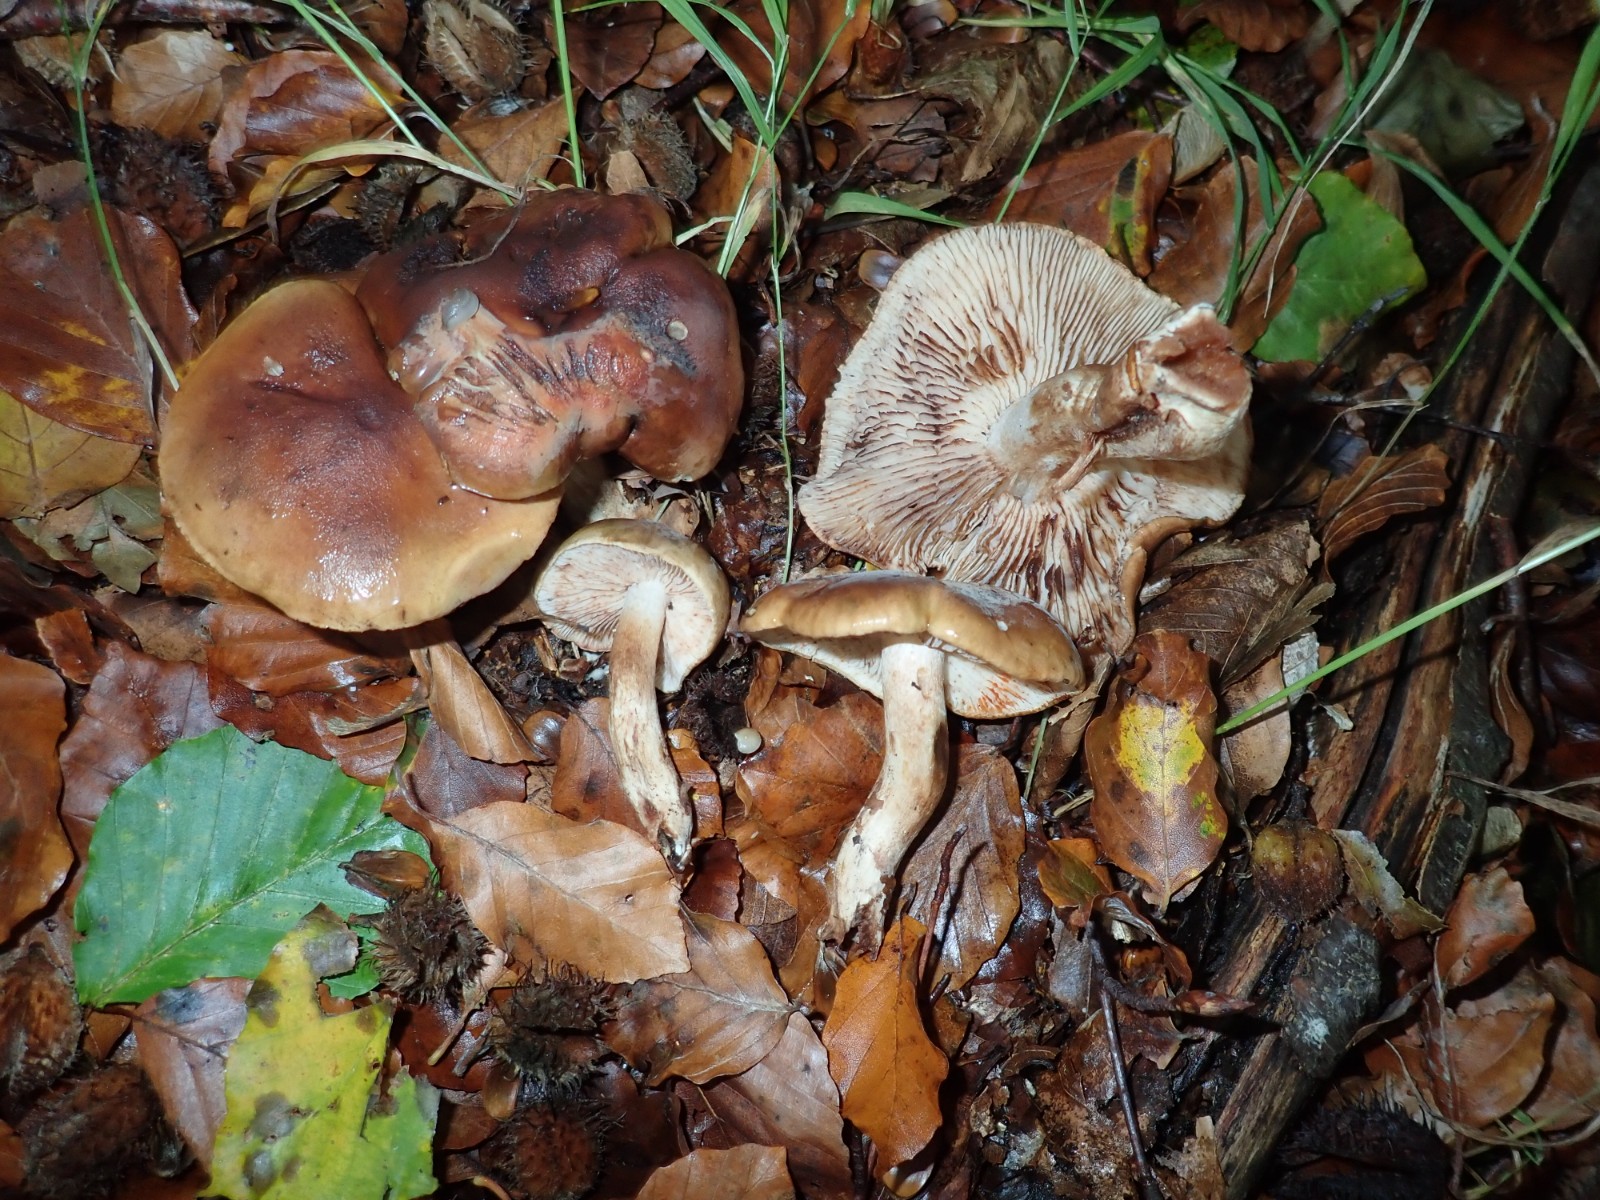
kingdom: Fungi
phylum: Basidiomycota
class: Agaricomycetes
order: Agaricales
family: Tricholomataceae
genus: Tricholoma
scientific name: Tricholoma ustale
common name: sveden ridderhat
